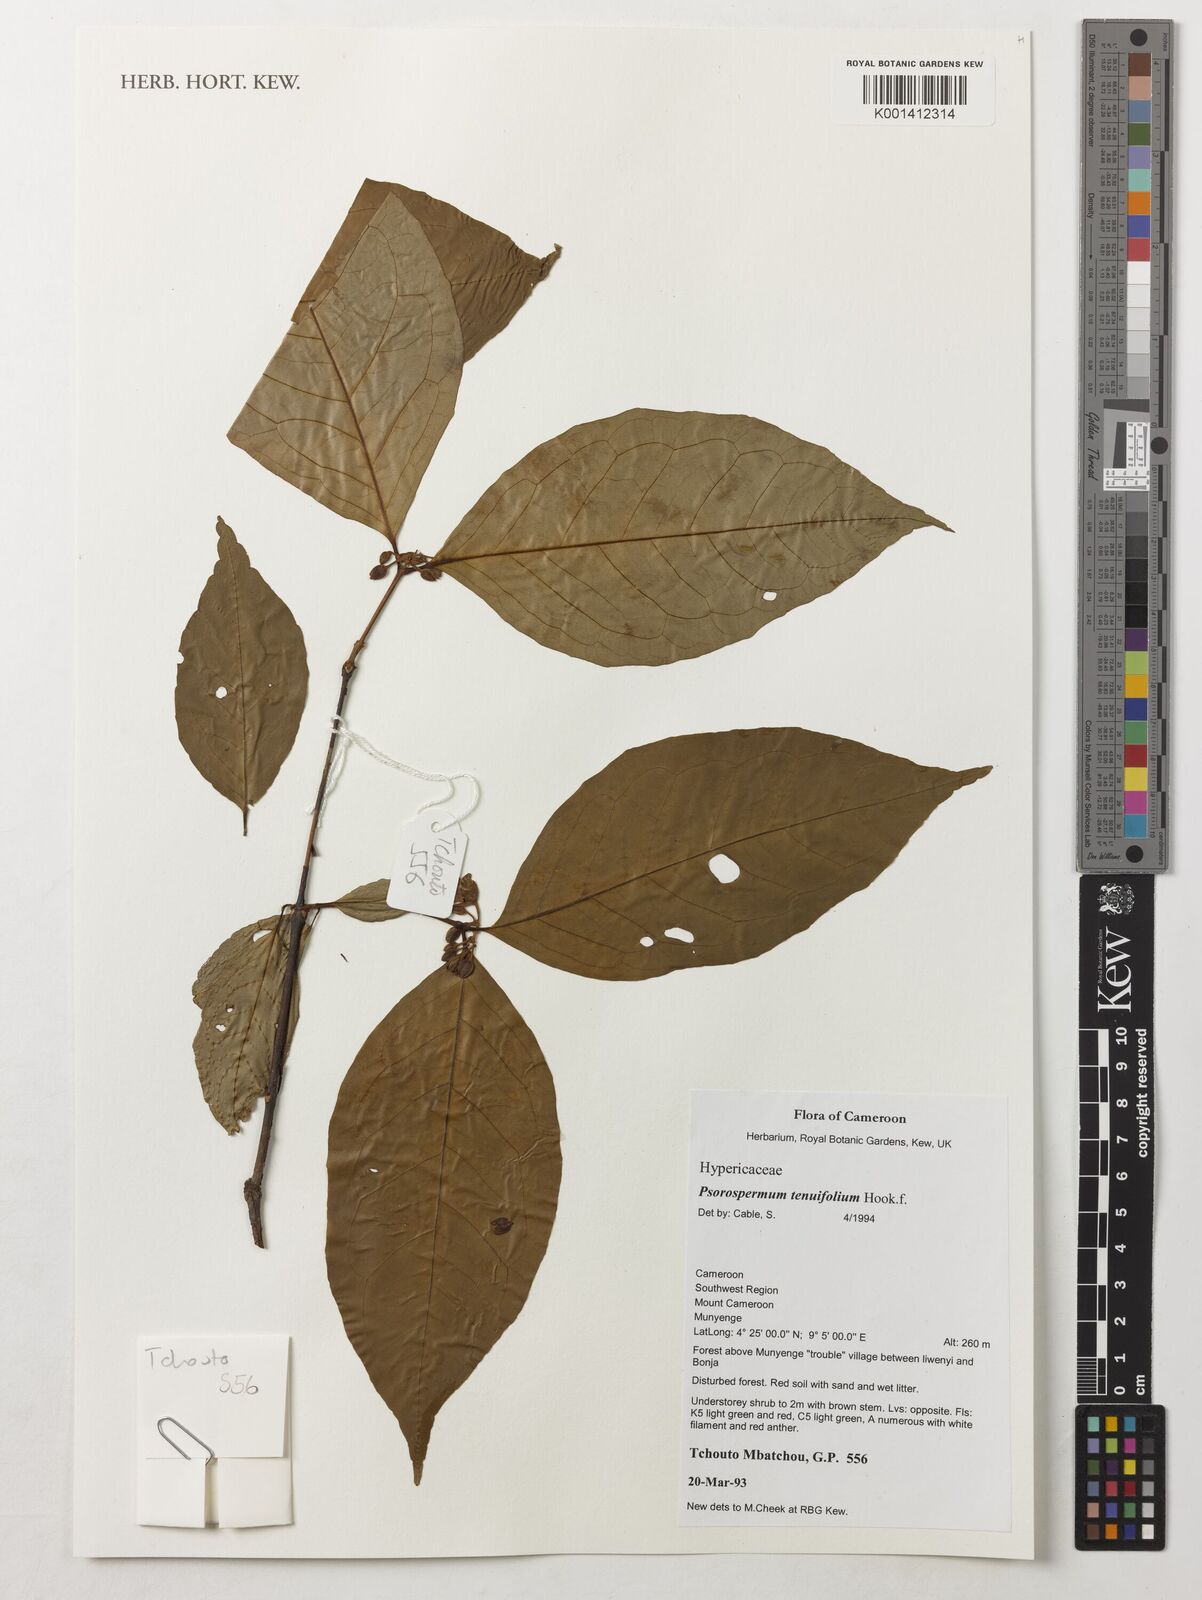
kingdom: Plantae
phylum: Tracheophyta
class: Magnoliopsida
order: Malpighiales
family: Hypericaceae
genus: Psorospermum
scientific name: Psorospermum tenuifolium
